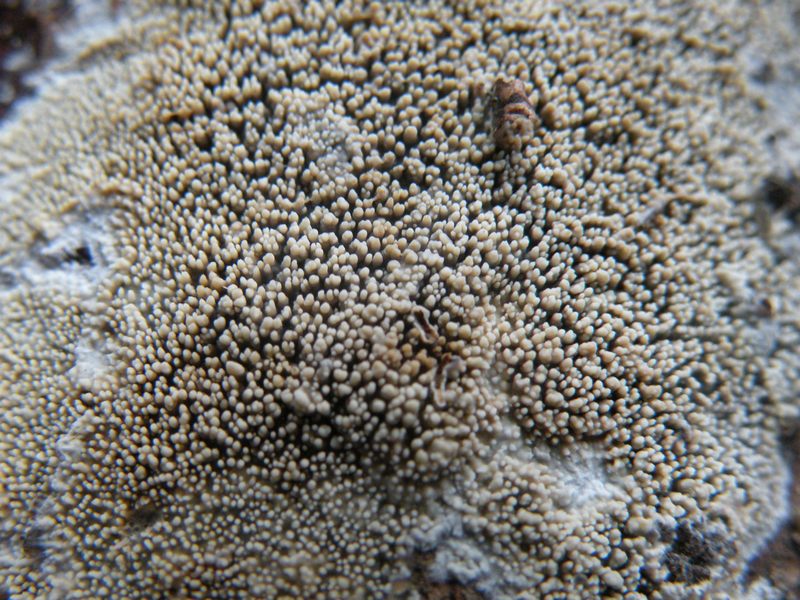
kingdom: Fungi
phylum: Basidiomycota
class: Agaricomycetes
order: Polyporales
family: Meruliaceae
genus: Mycoacia
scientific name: Mycoacia fuscoatra
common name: mørk vokspig
